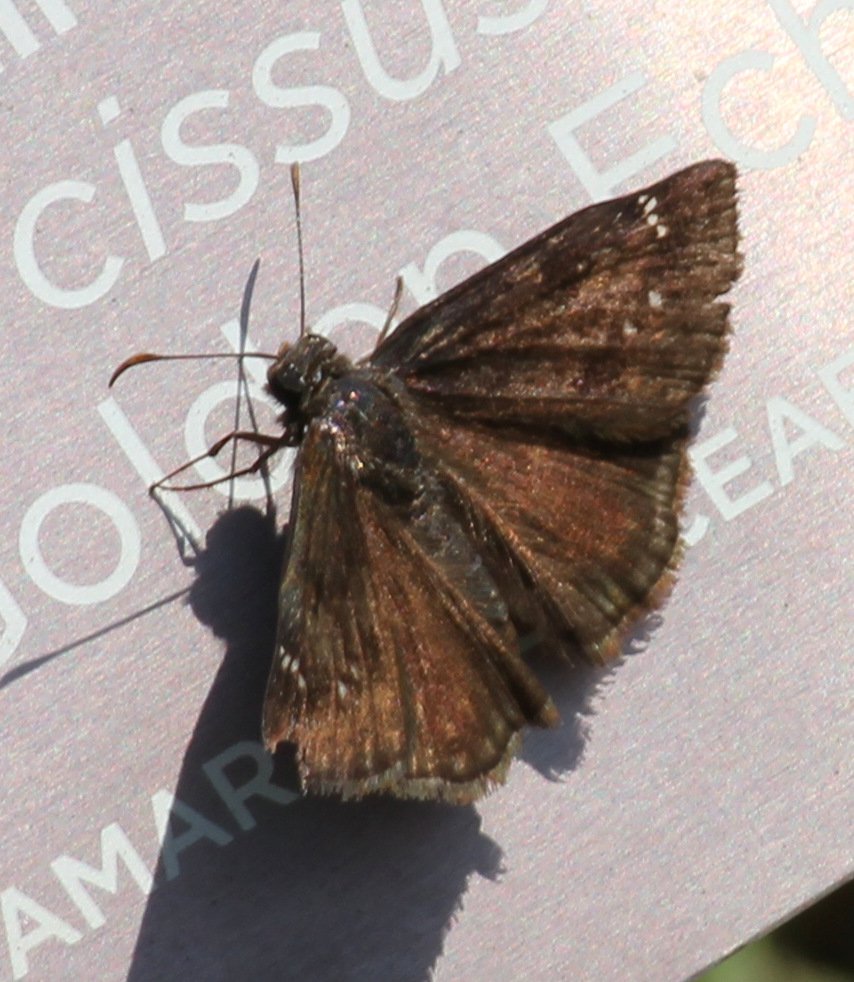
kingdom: Animalia
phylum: Arthropoda
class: Insecta
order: Lepidoptera
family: Hesperiidae
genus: Gesta
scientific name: Gesta
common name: Wild Indigo Duskywing
